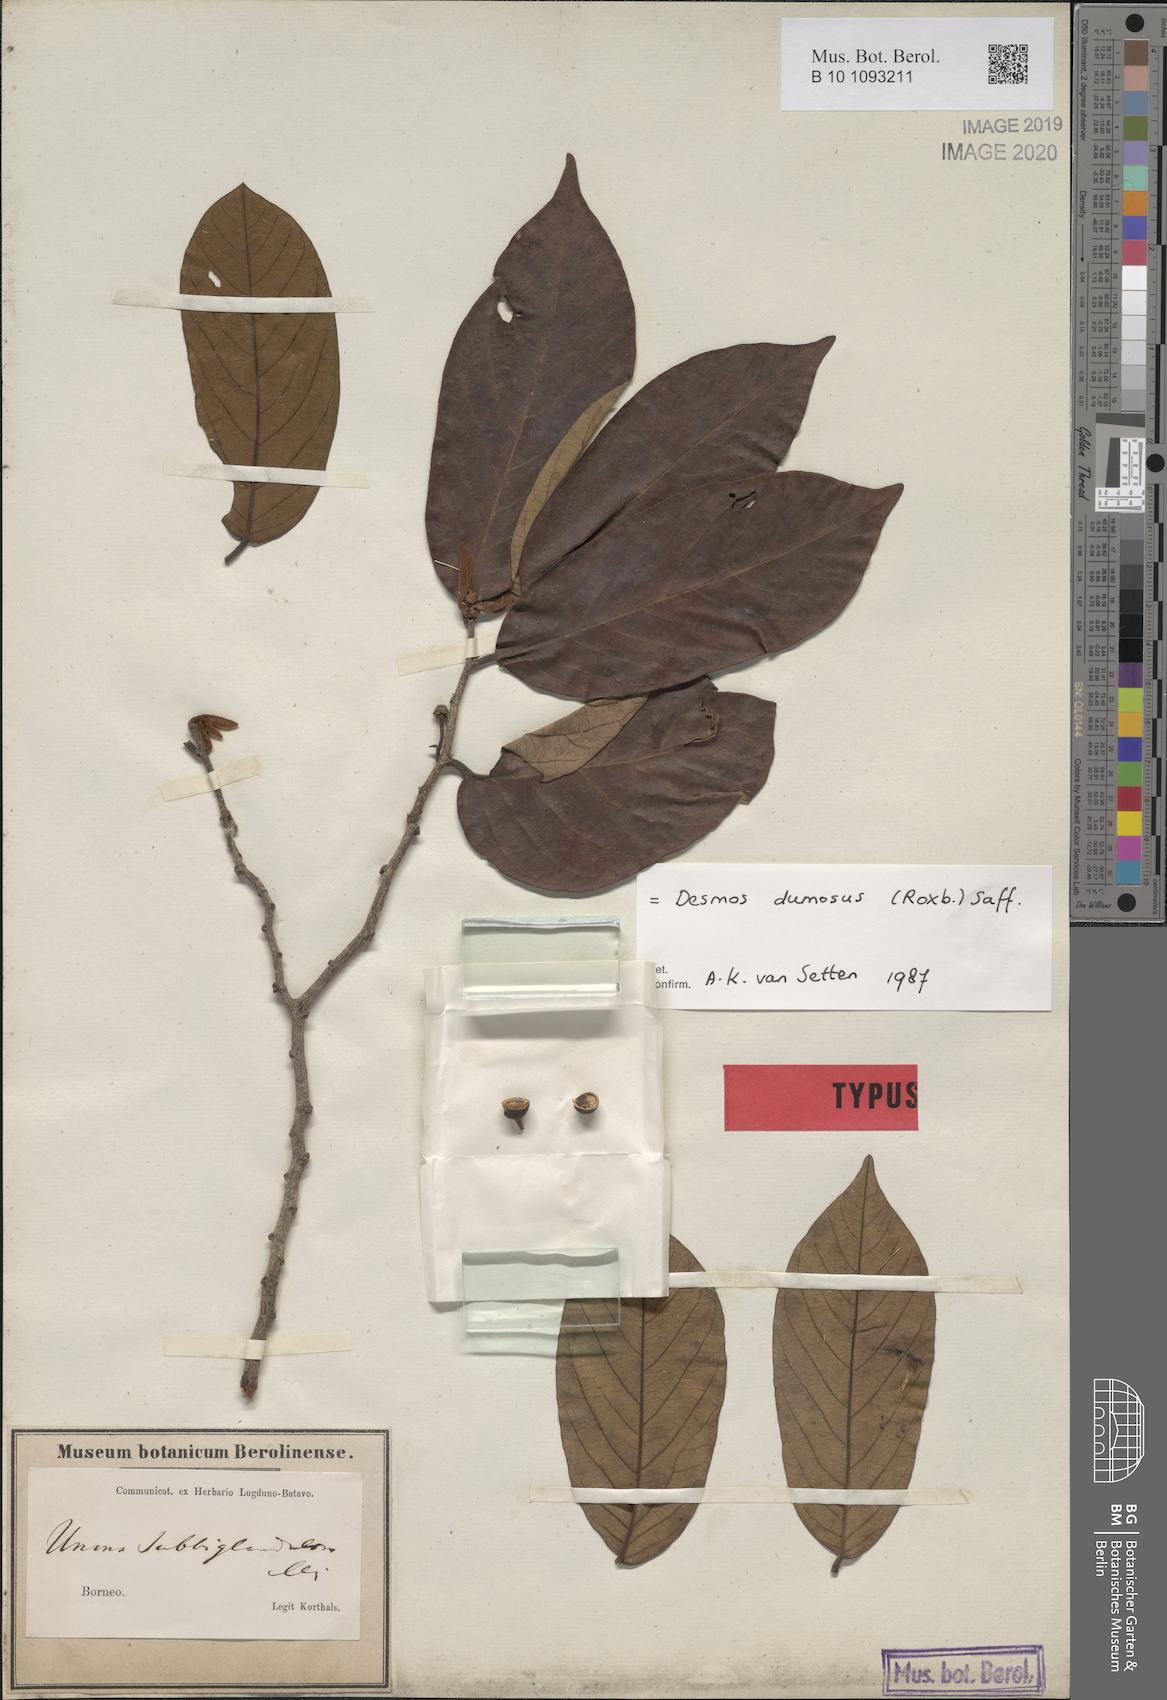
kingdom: Plantae
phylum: Tracheophyta
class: Magnoliopsida
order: Magnoliales
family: Annonaceae
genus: Desmos
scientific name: Desmos dumosus
